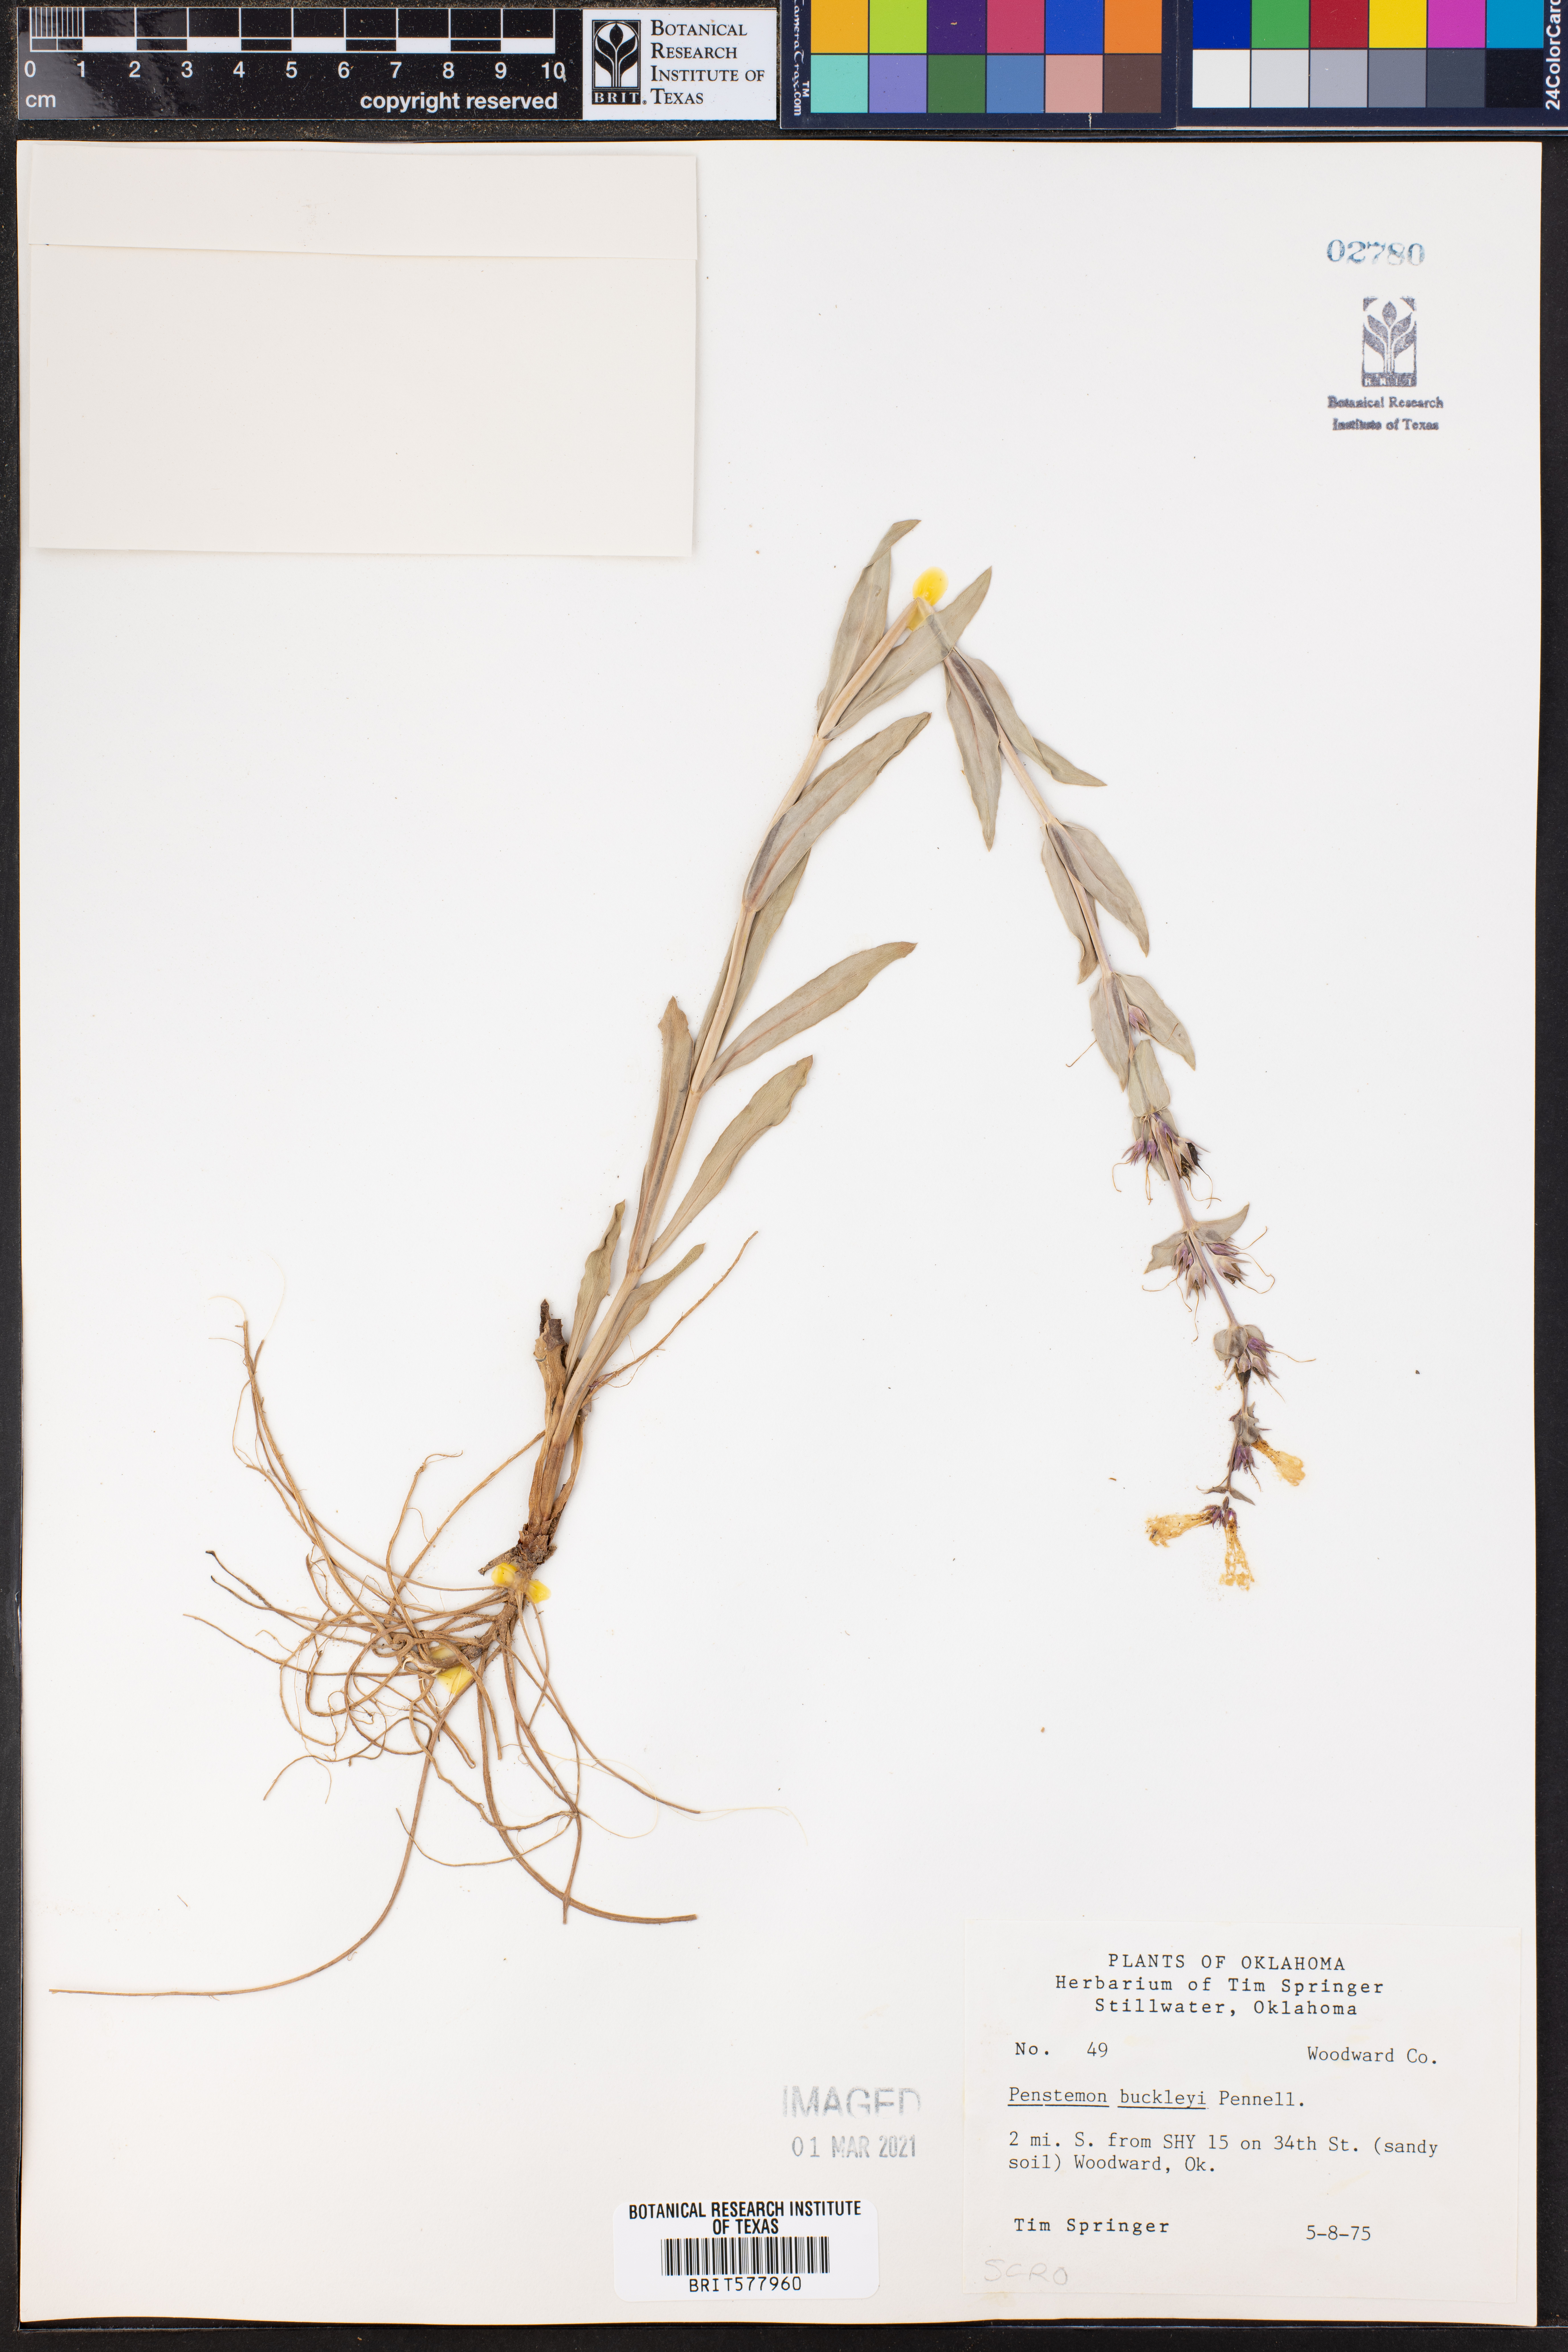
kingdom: Plantae
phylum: Tracheophyta
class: Magnoliopsida
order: Lamiales
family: Plantaginaceae
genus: Penstemon
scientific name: Penstemon buckleyi
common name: Buckley's penstemon
